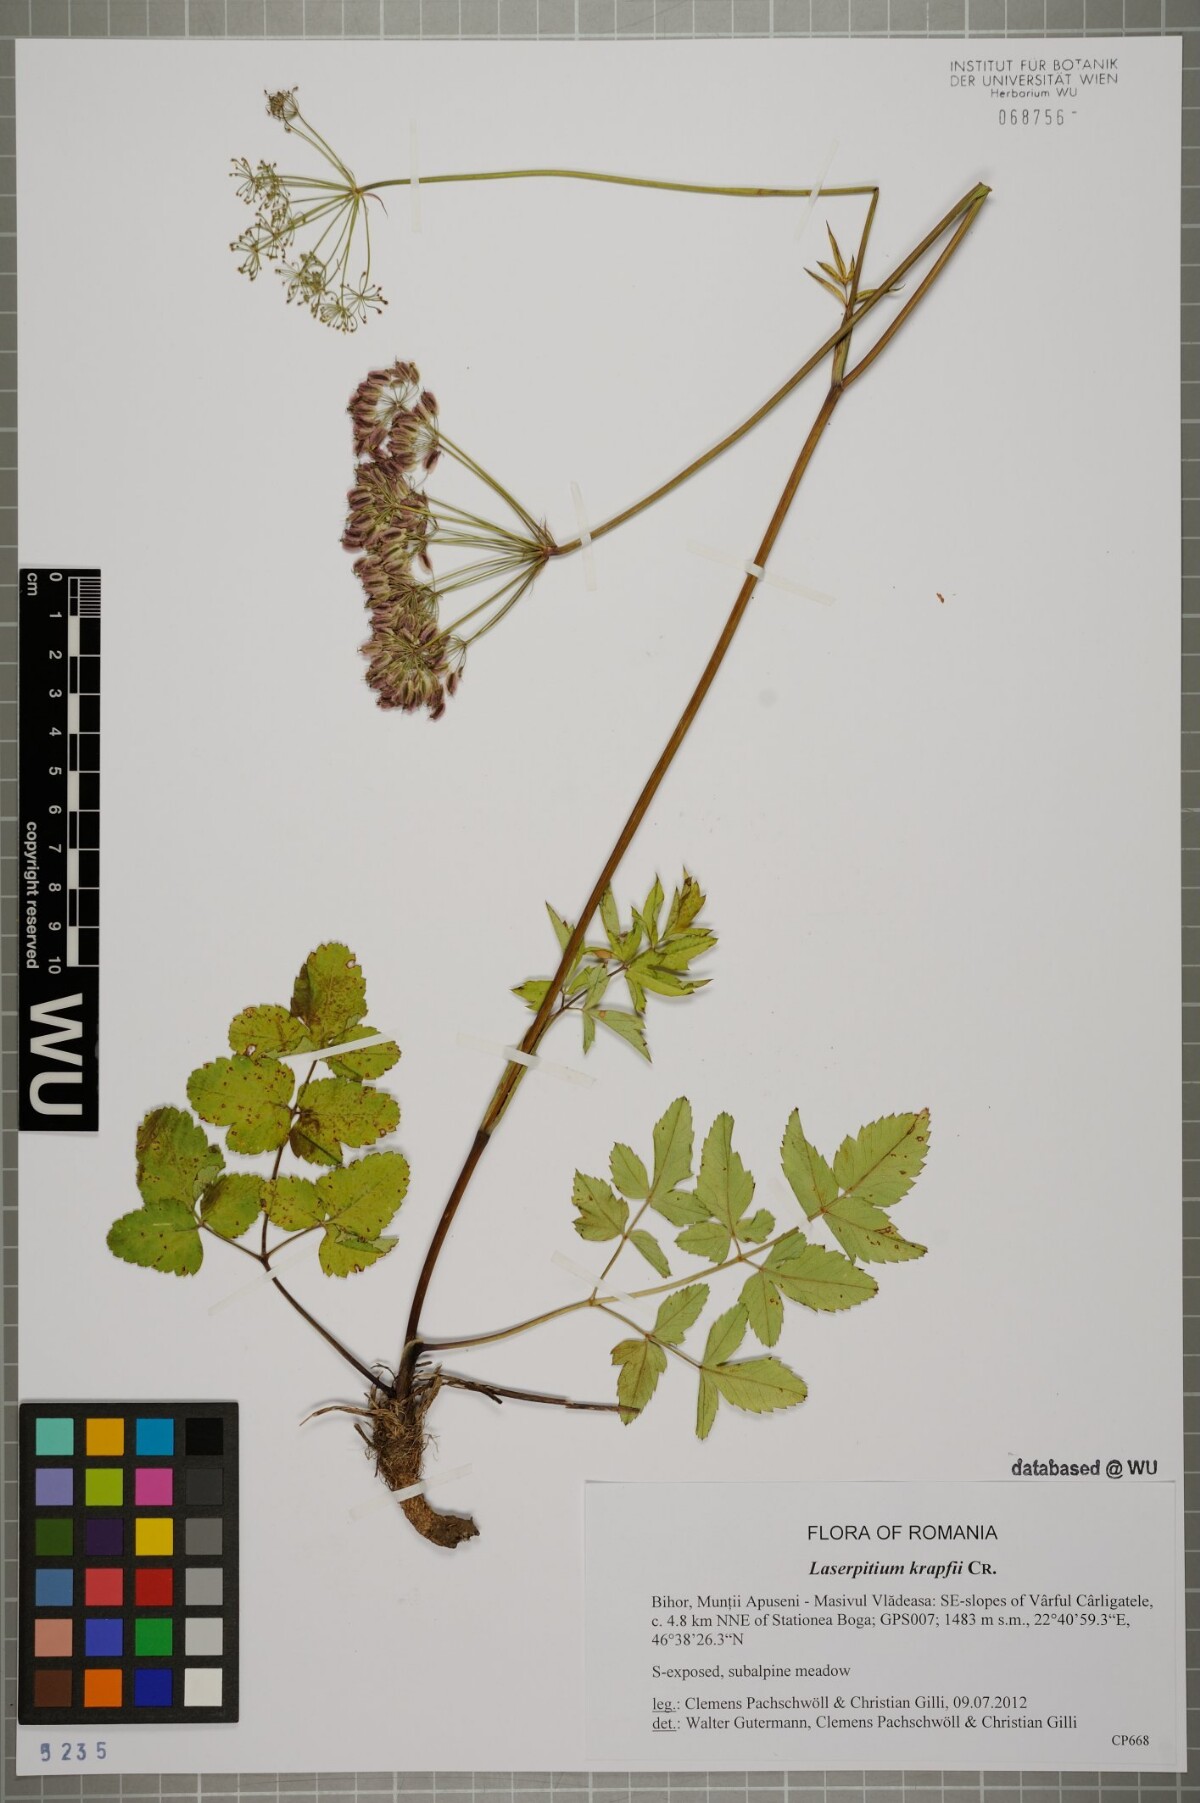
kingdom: Plantae
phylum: Tracheophyta
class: Magnoliopsida
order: Apiales
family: Apiaceae
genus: Laserpitium
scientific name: Laserpitium krapffii
